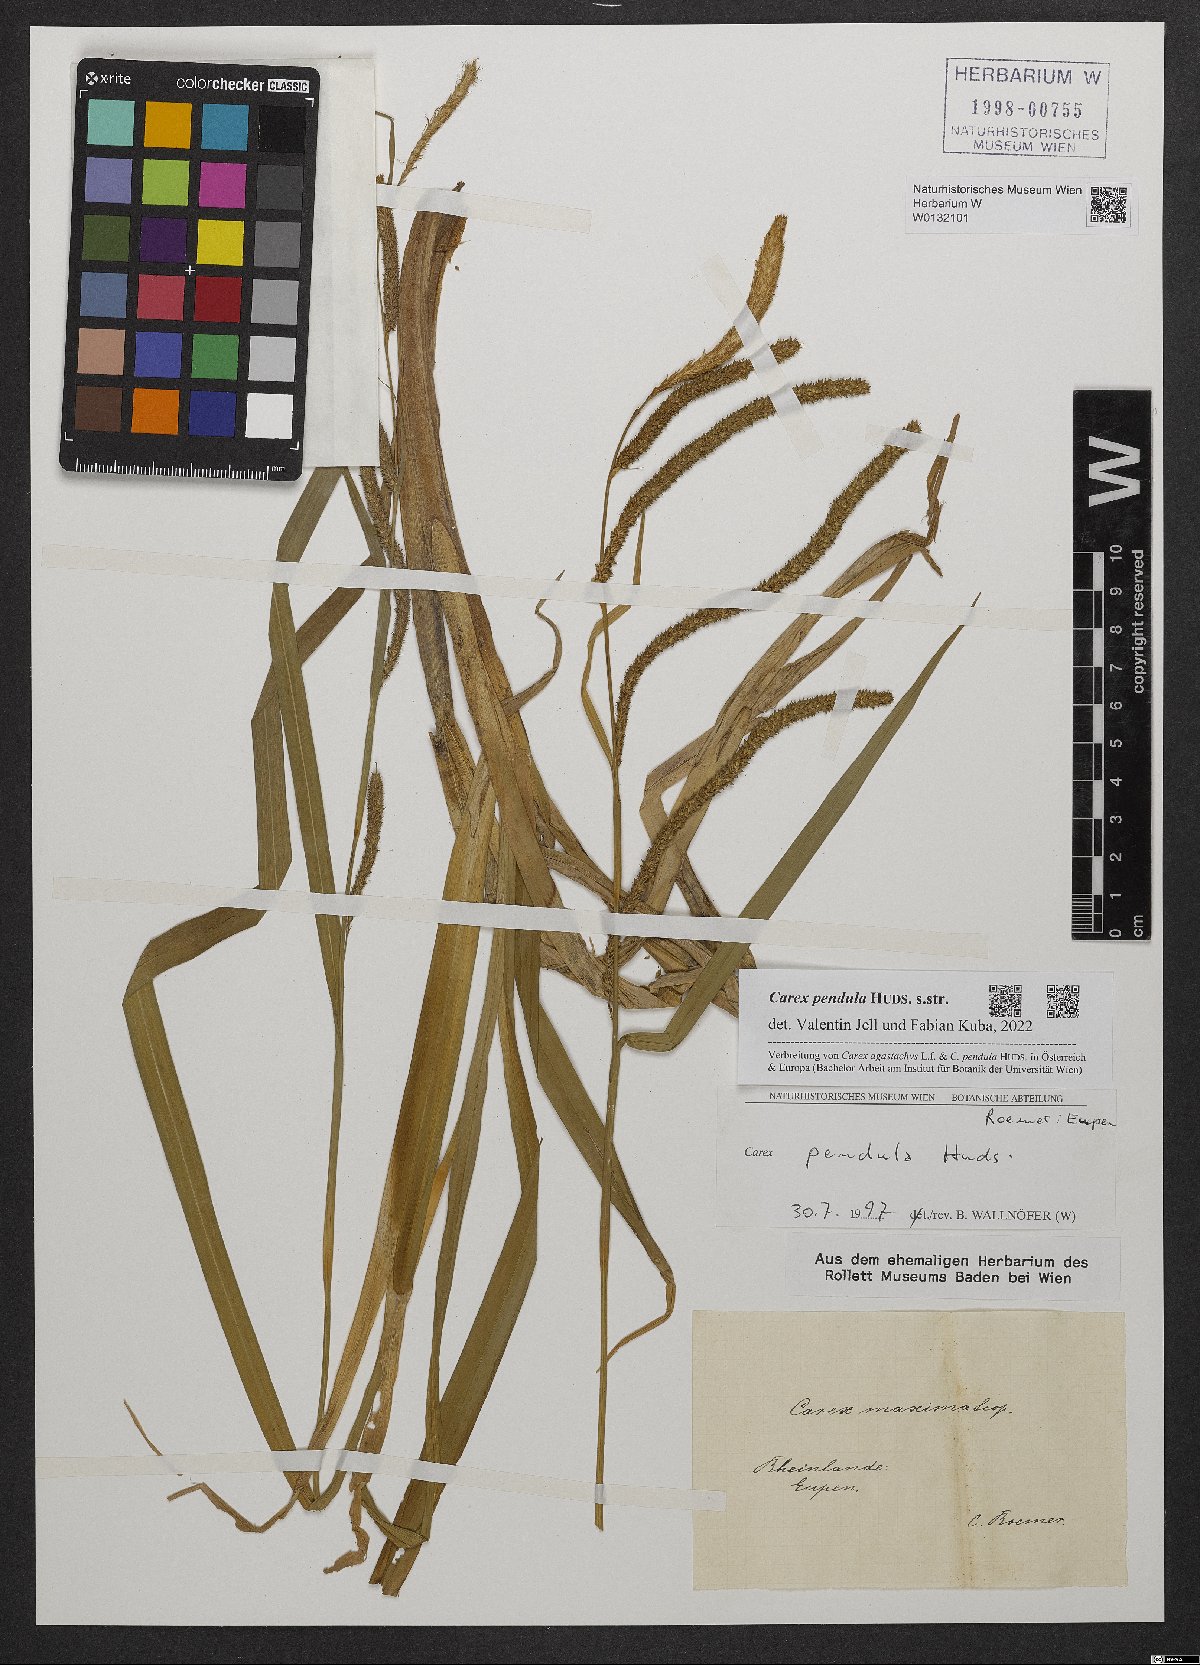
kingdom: Plantae
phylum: Tracheophyta
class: Liliopsida
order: Poales
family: Cyperaceae
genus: Carex
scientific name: Carex pendula
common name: Pendulous sedge
